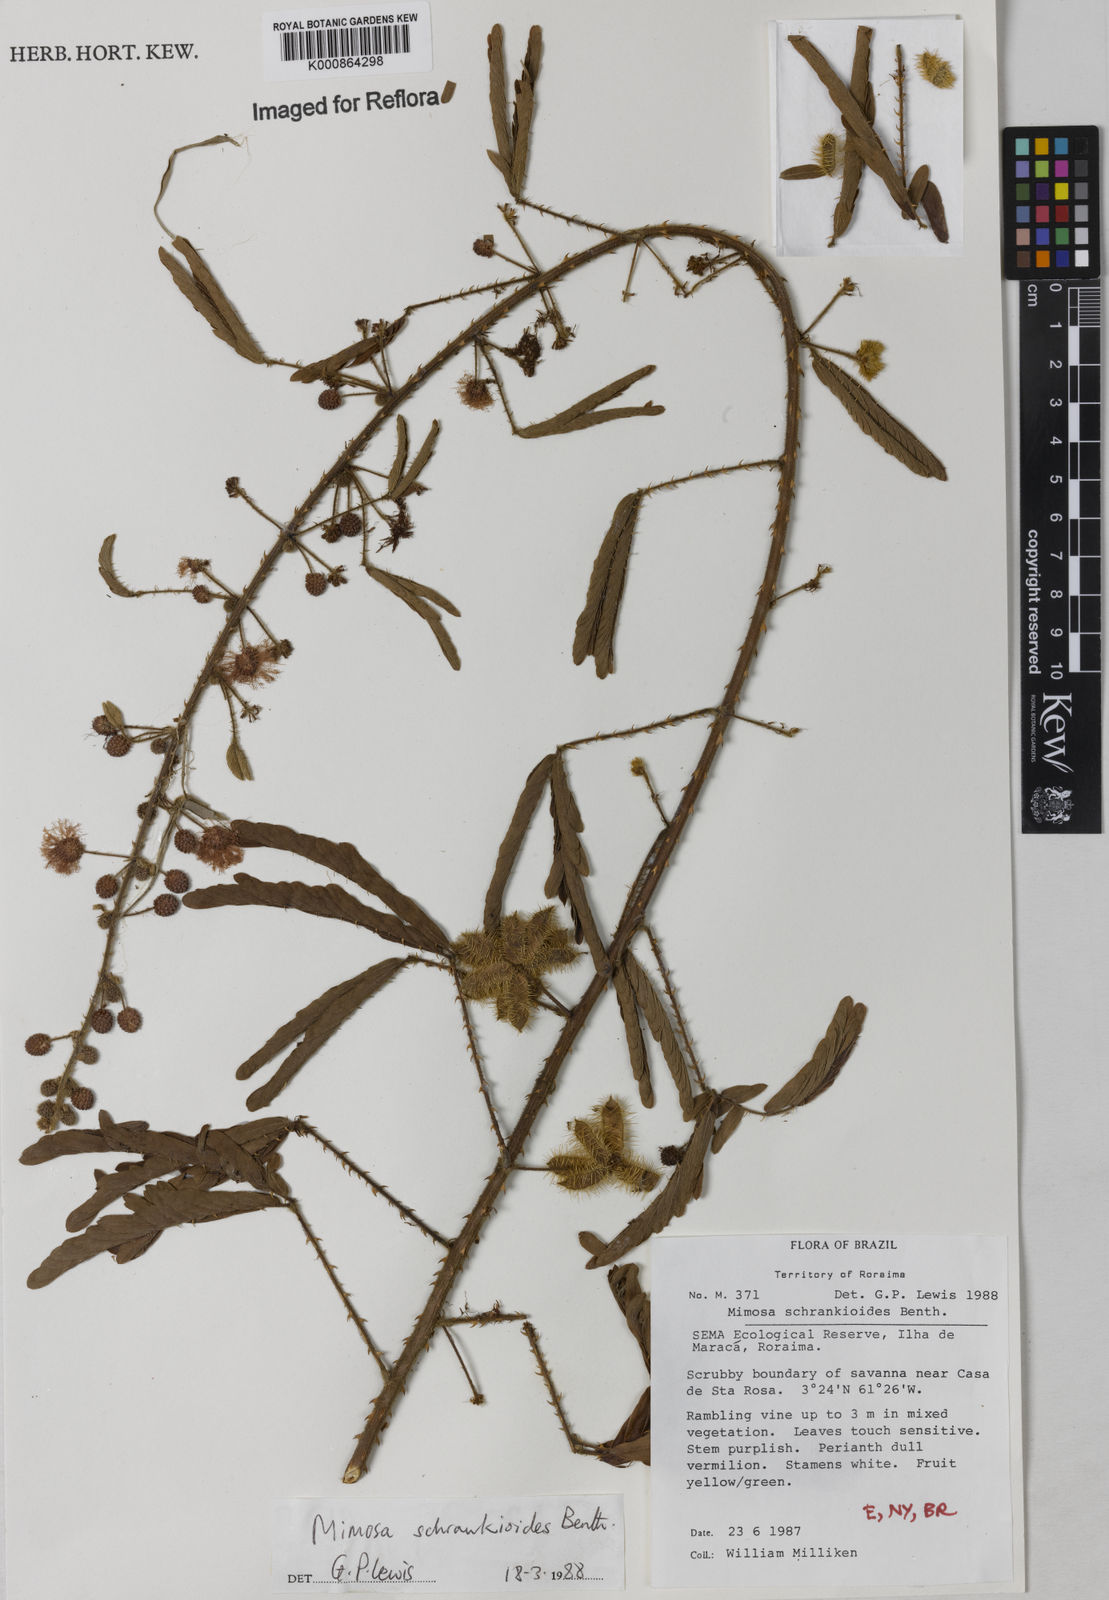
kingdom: Plantae
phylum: Tracheophyta
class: Magnoliopsida
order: Fabales
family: Fabaceae
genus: Mimosa
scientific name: Mimosa schrankioides
